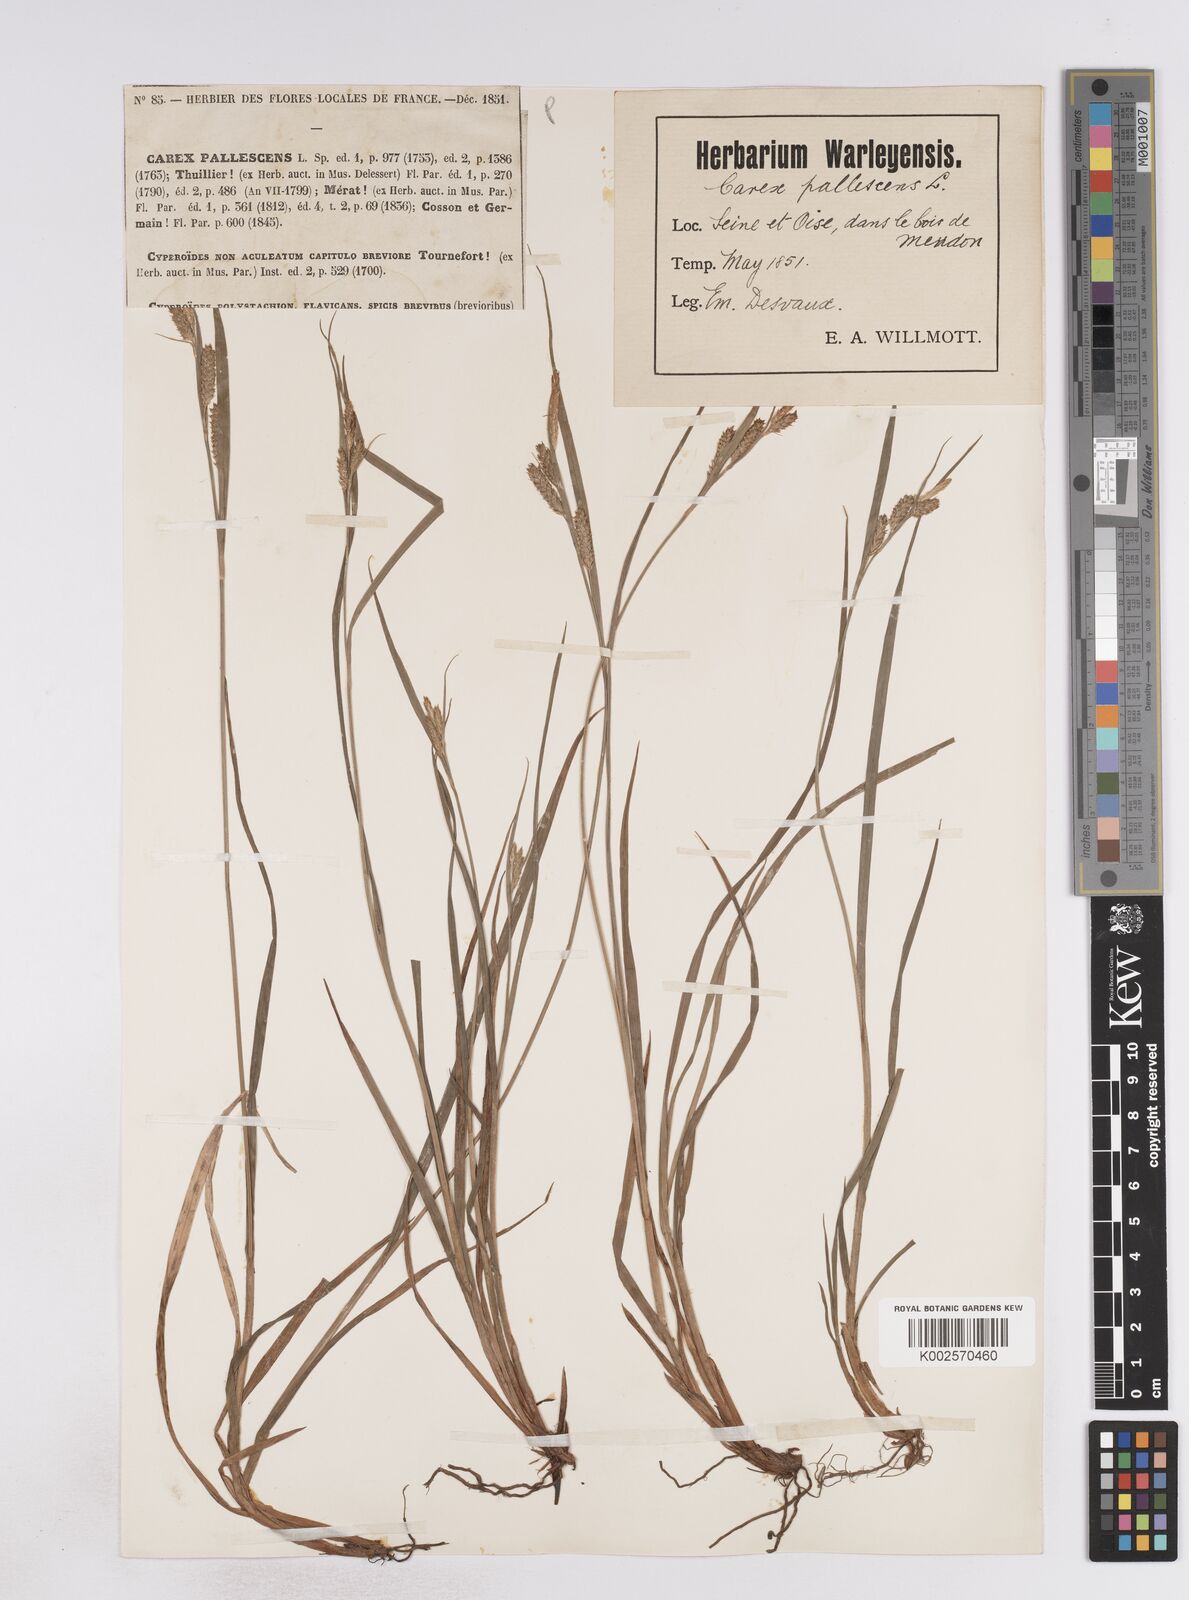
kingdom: Plantae
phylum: Tracheophyta
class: Liliopsida
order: Poales
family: Cyperaceae
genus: Carex
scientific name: Carex pallescens
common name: Pale sedge
